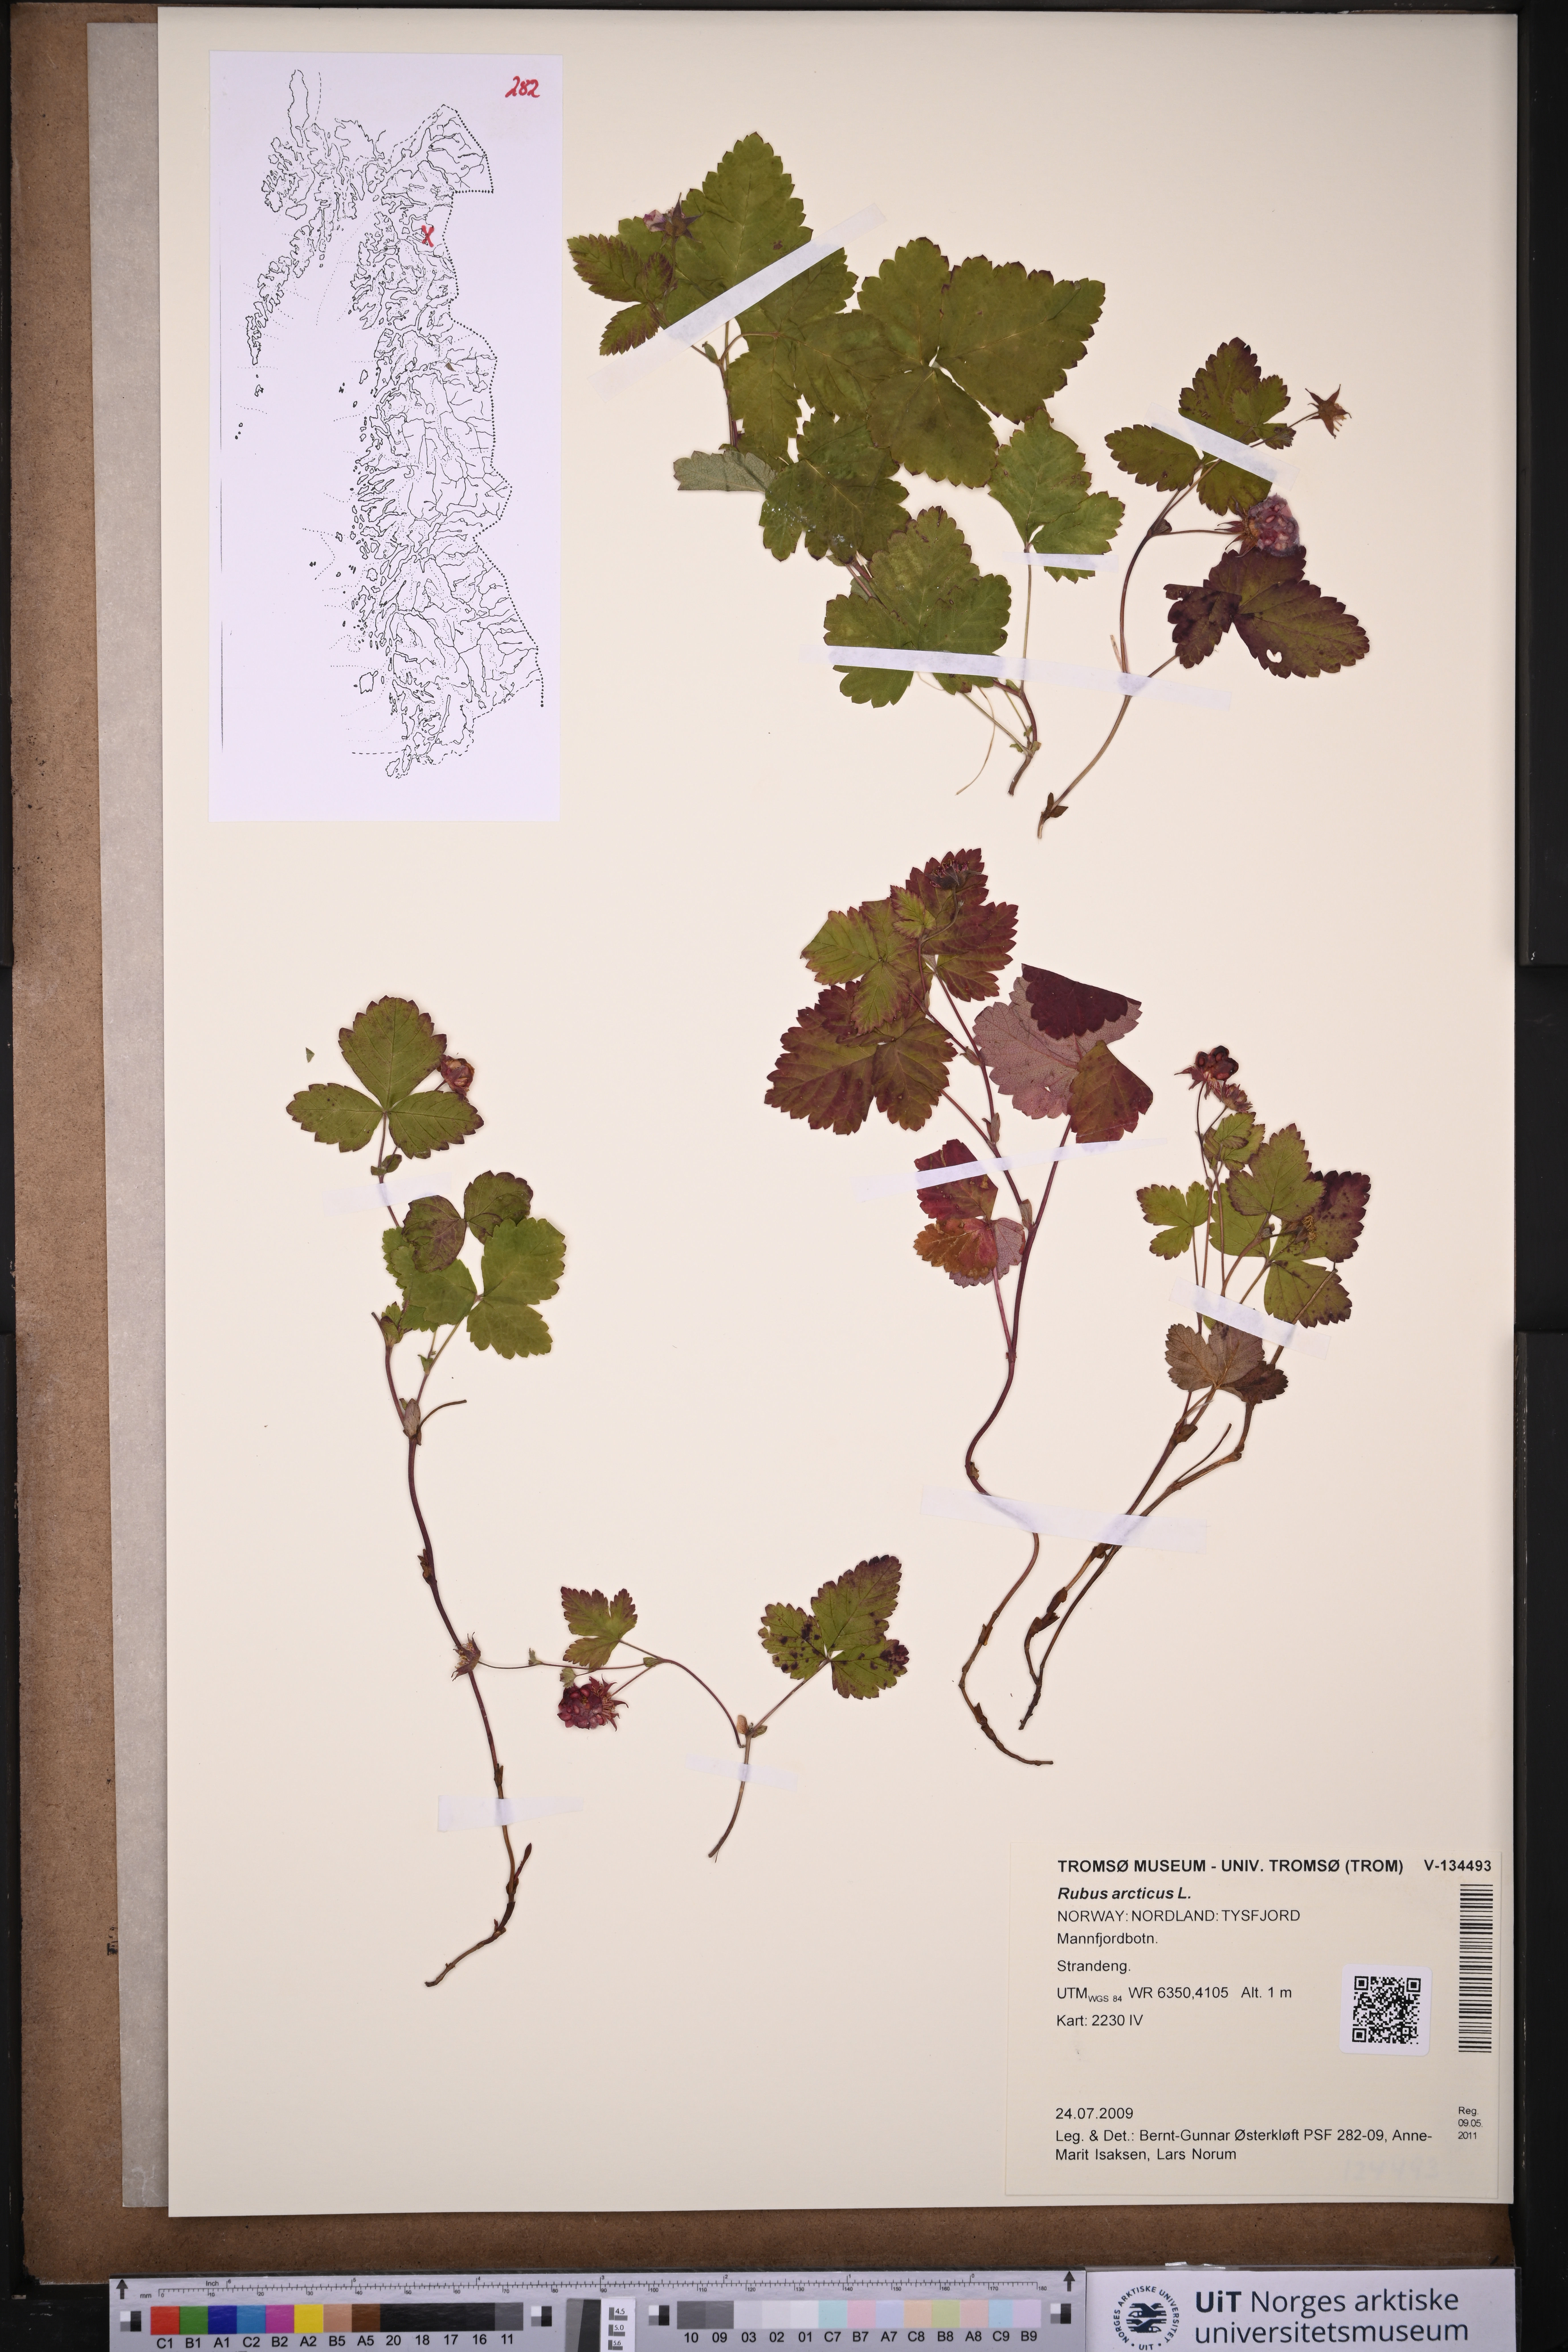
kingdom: Plantae
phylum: Tracheophyta
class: Magnoliopsida
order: Rosales
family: Rosaceae
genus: Rubus
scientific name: Rubus arcticus
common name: Arctic bramble
